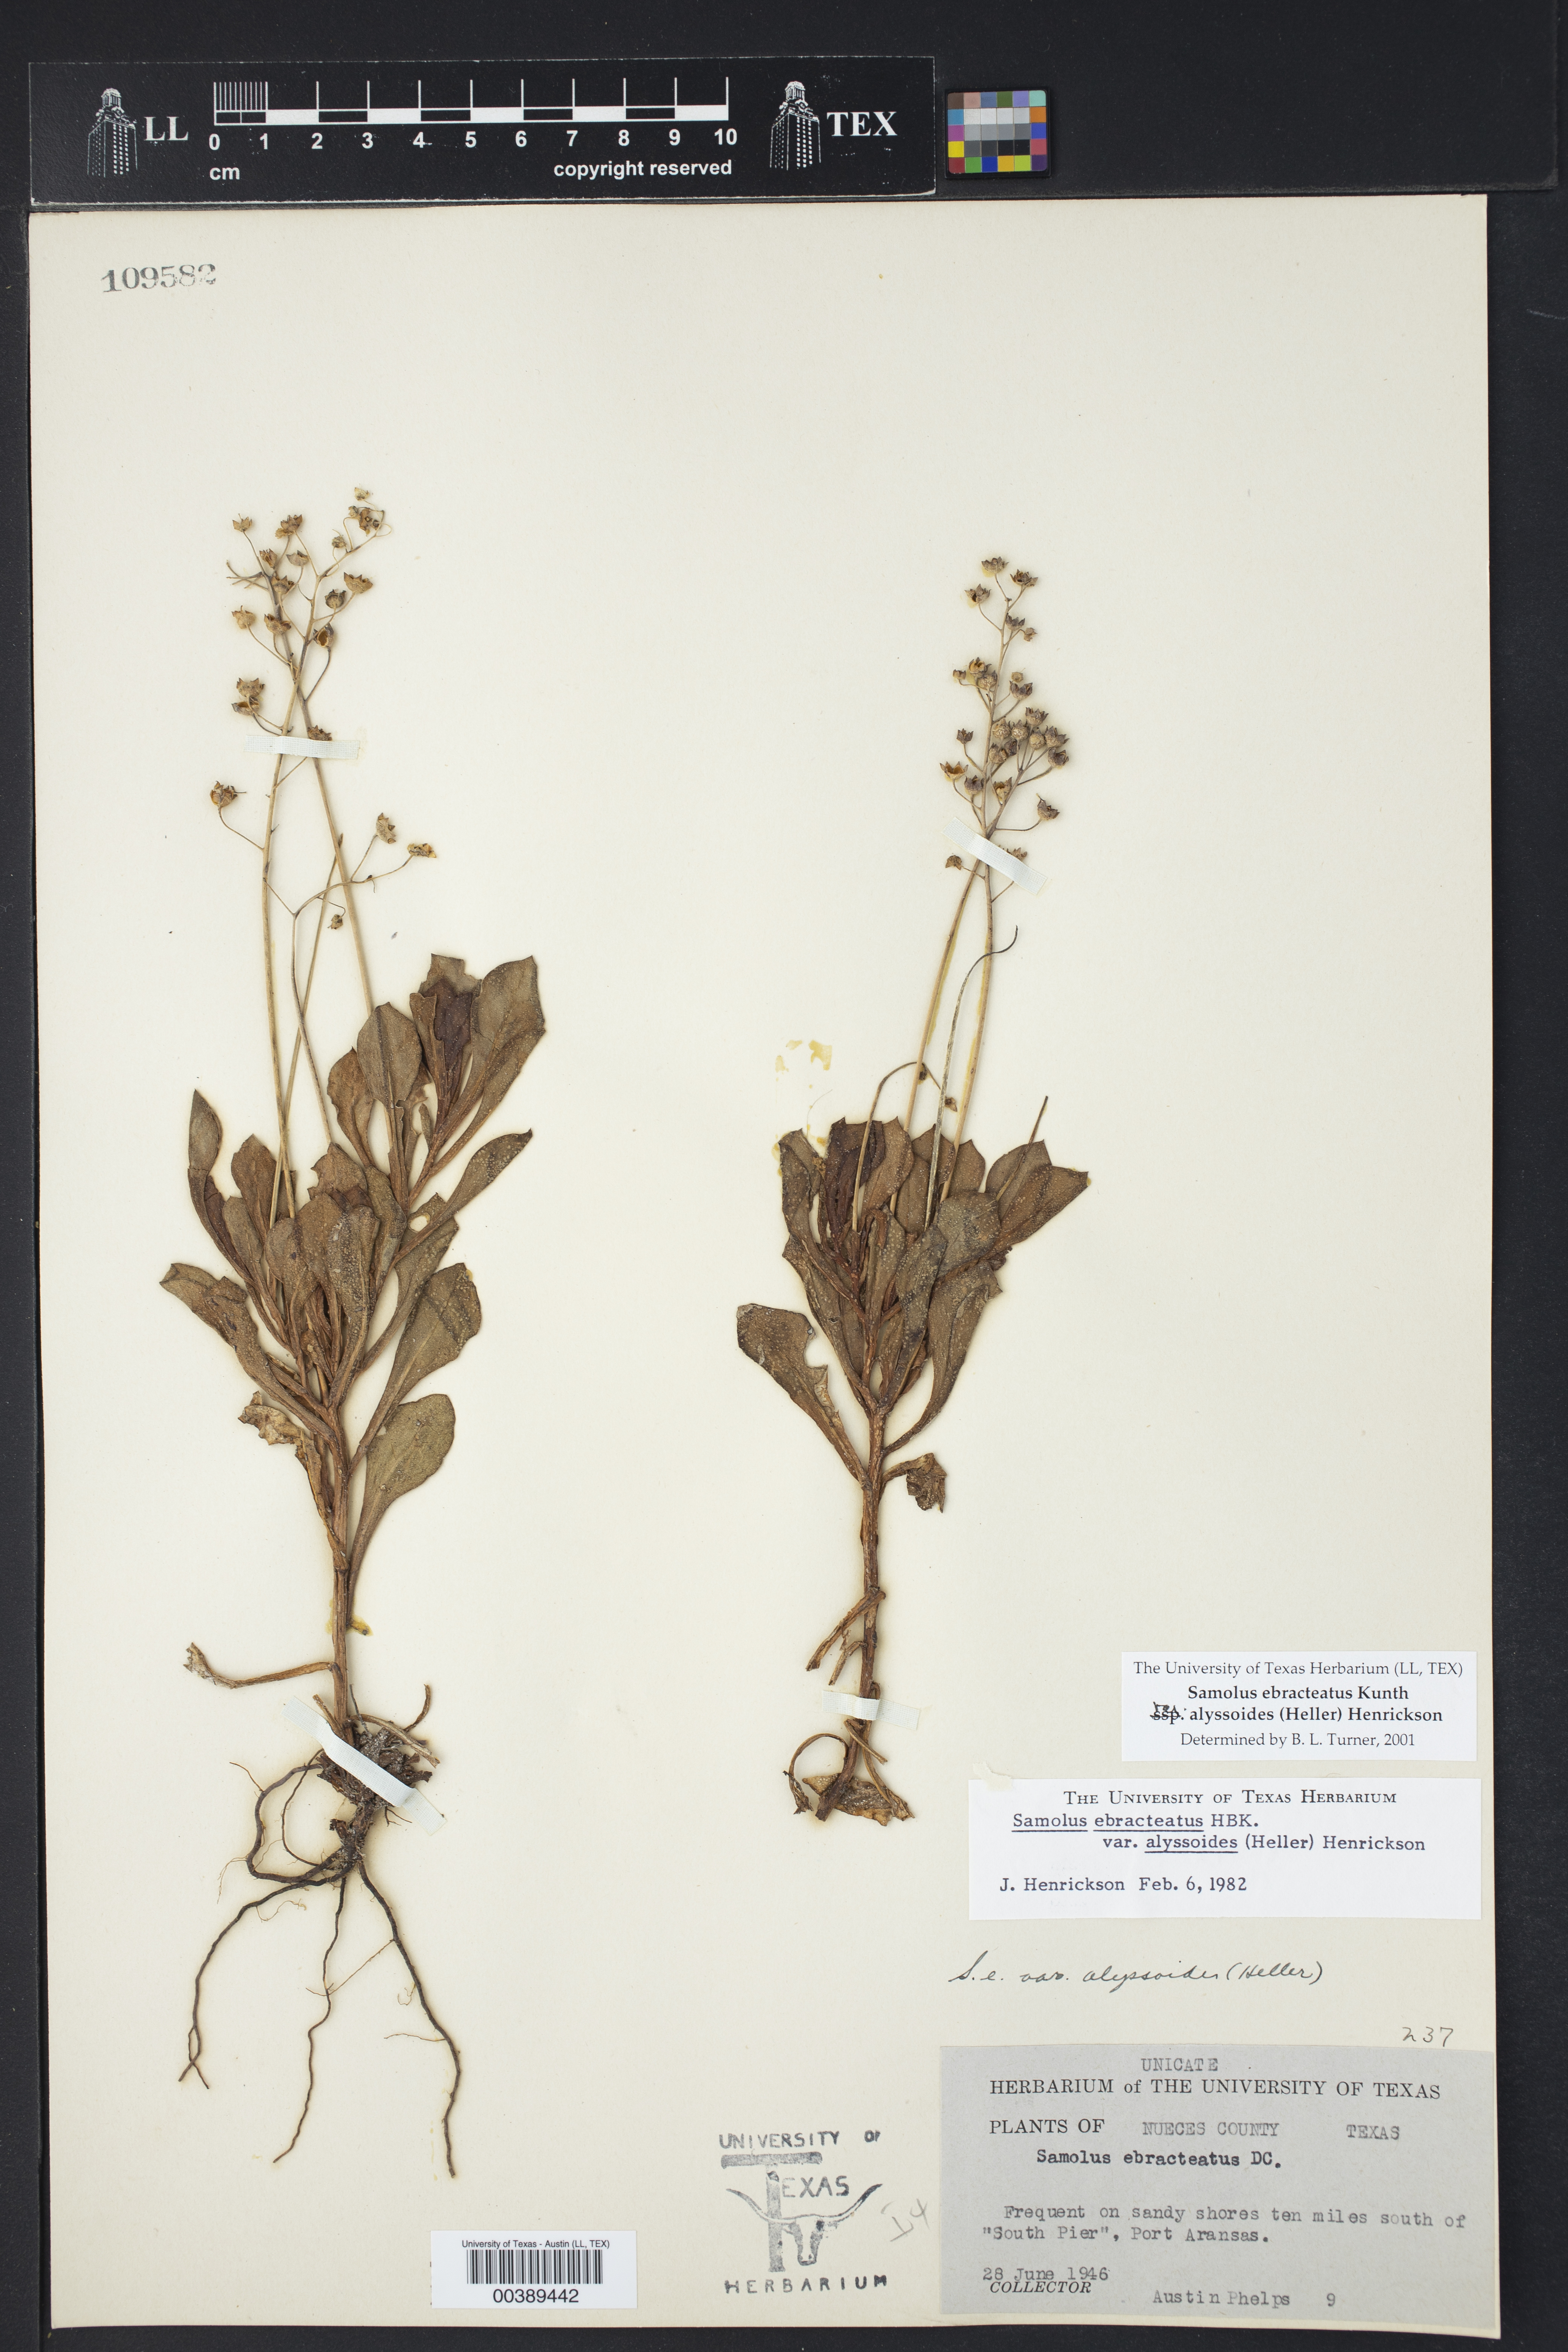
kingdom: Plantae
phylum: Tracheophyta
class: Magnoliopsida
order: Ericales
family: Primulaceae
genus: Samolus
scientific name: Samolus ebracteatus
